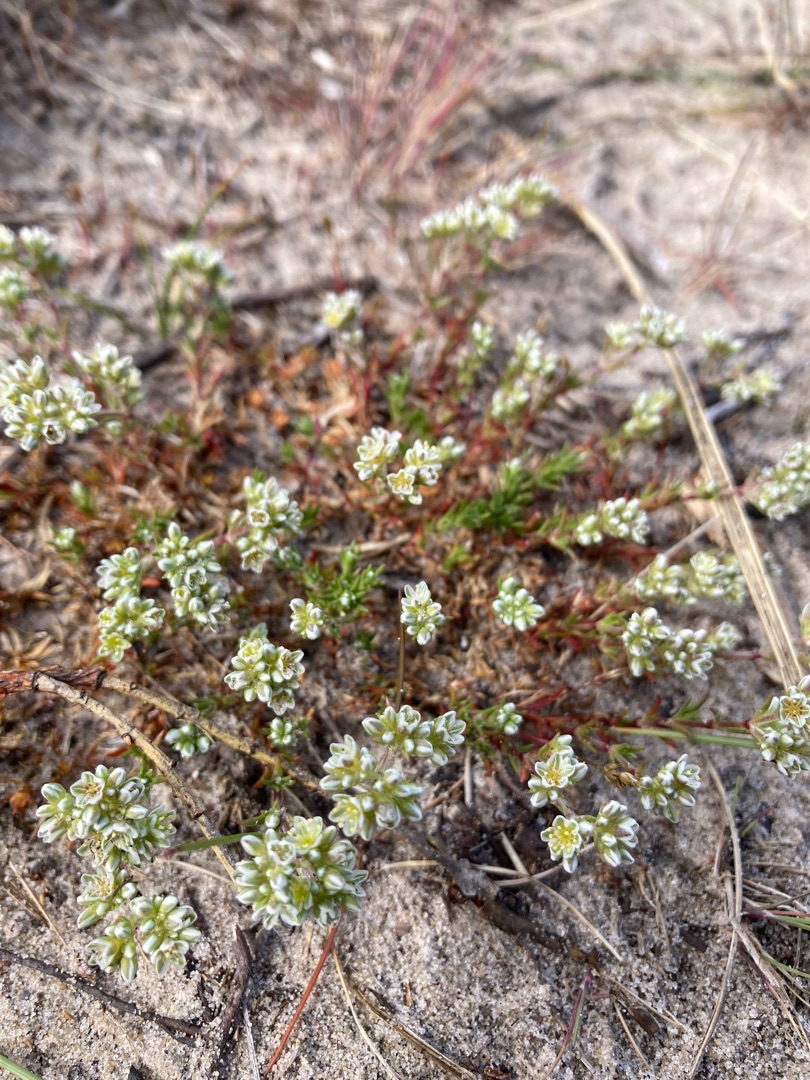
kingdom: Plantae
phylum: Tracheophyta
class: Magnoliopsida
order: Caryophyllales
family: Caryophyllaceae
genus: Scleranthus
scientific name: Scleranthus perennis
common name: Flerårig knavel
